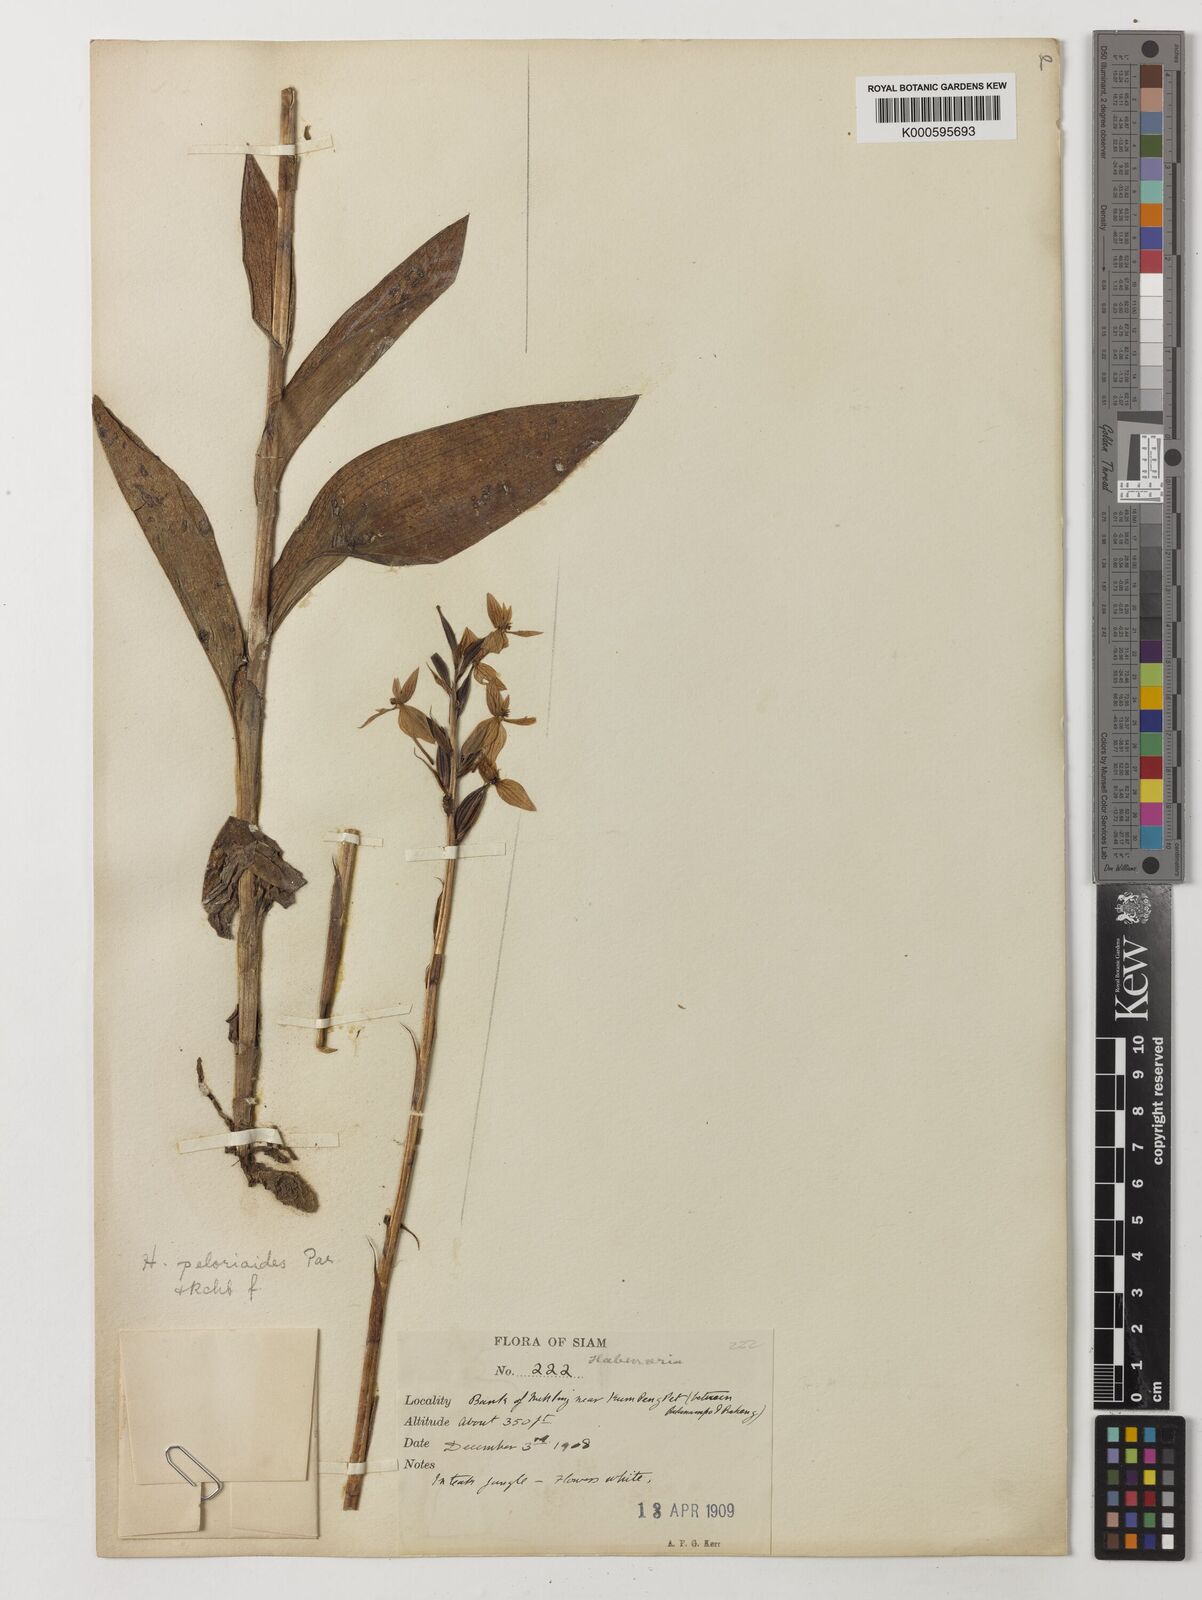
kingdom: Plantae
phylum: Tracheophyta
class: Liliopsida
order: Asparagales
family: Orchidaceae
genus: Habenaria
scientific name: Habenaria dentata
